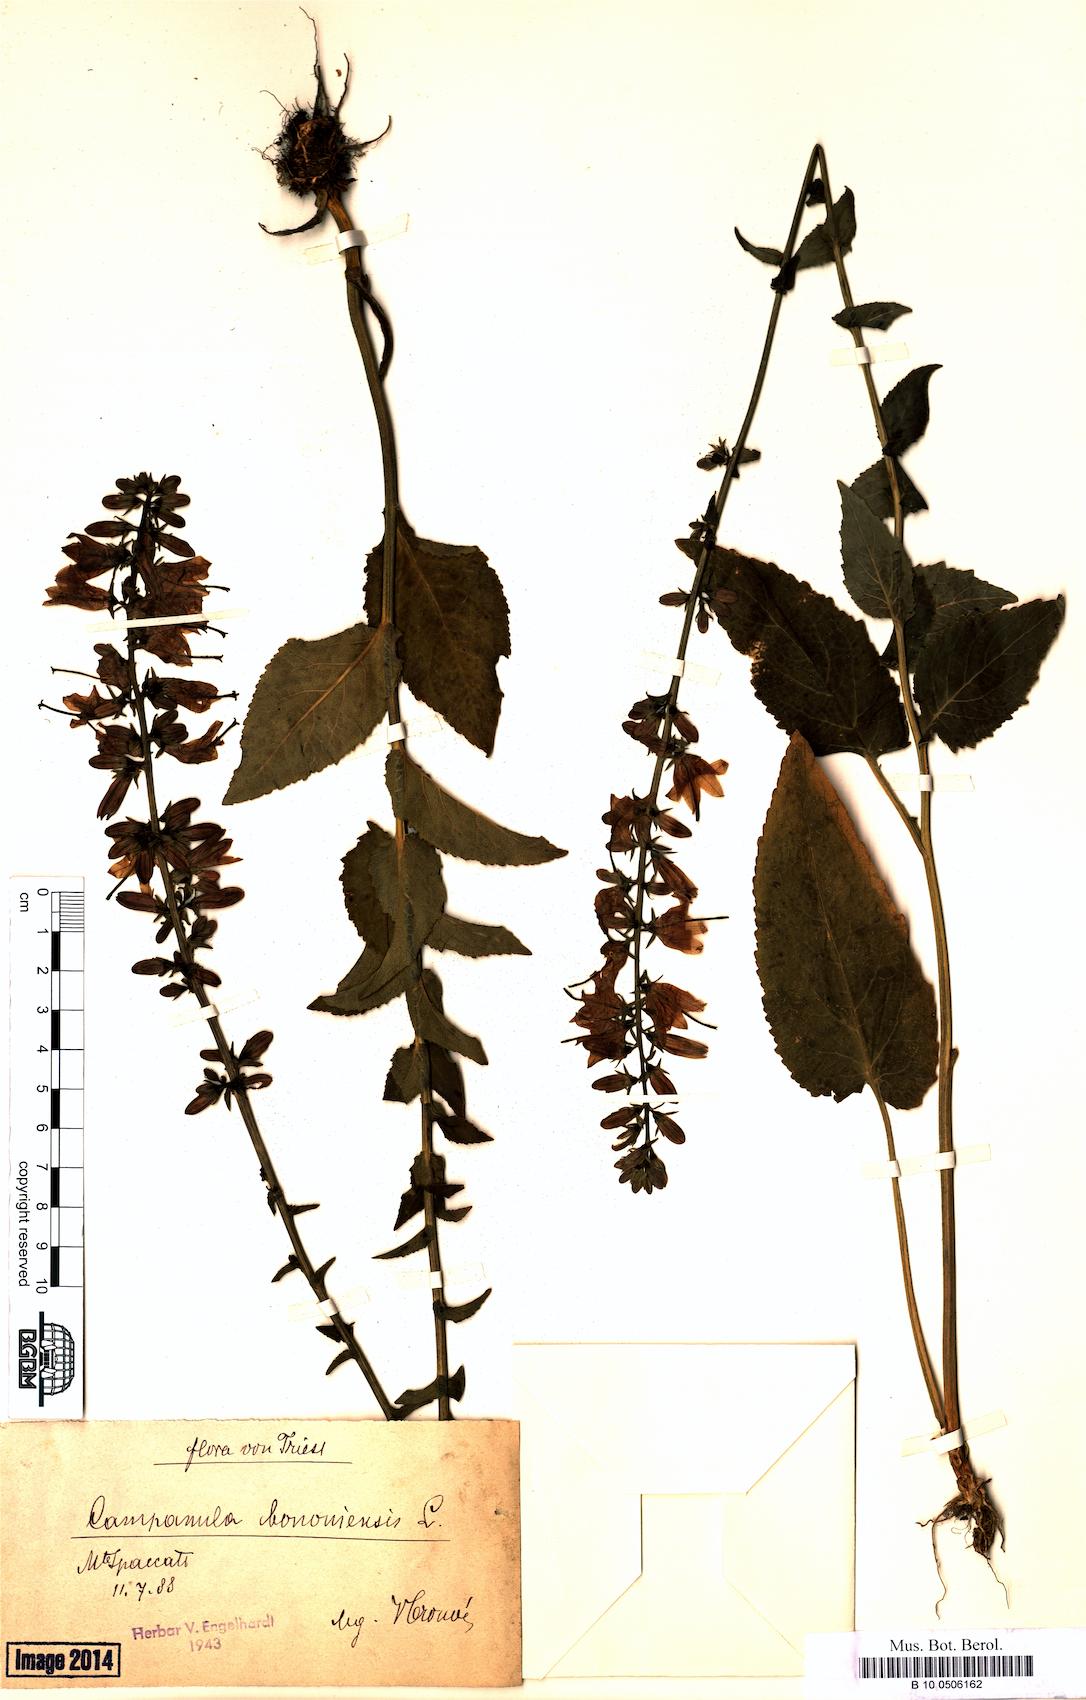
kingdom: Plantae
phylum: Tracheophyta
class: Magnoliopsida
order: Asterales
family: Campanulaceae
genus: Campanula
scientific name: Campanula bononiensis
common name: Pale bellflower
